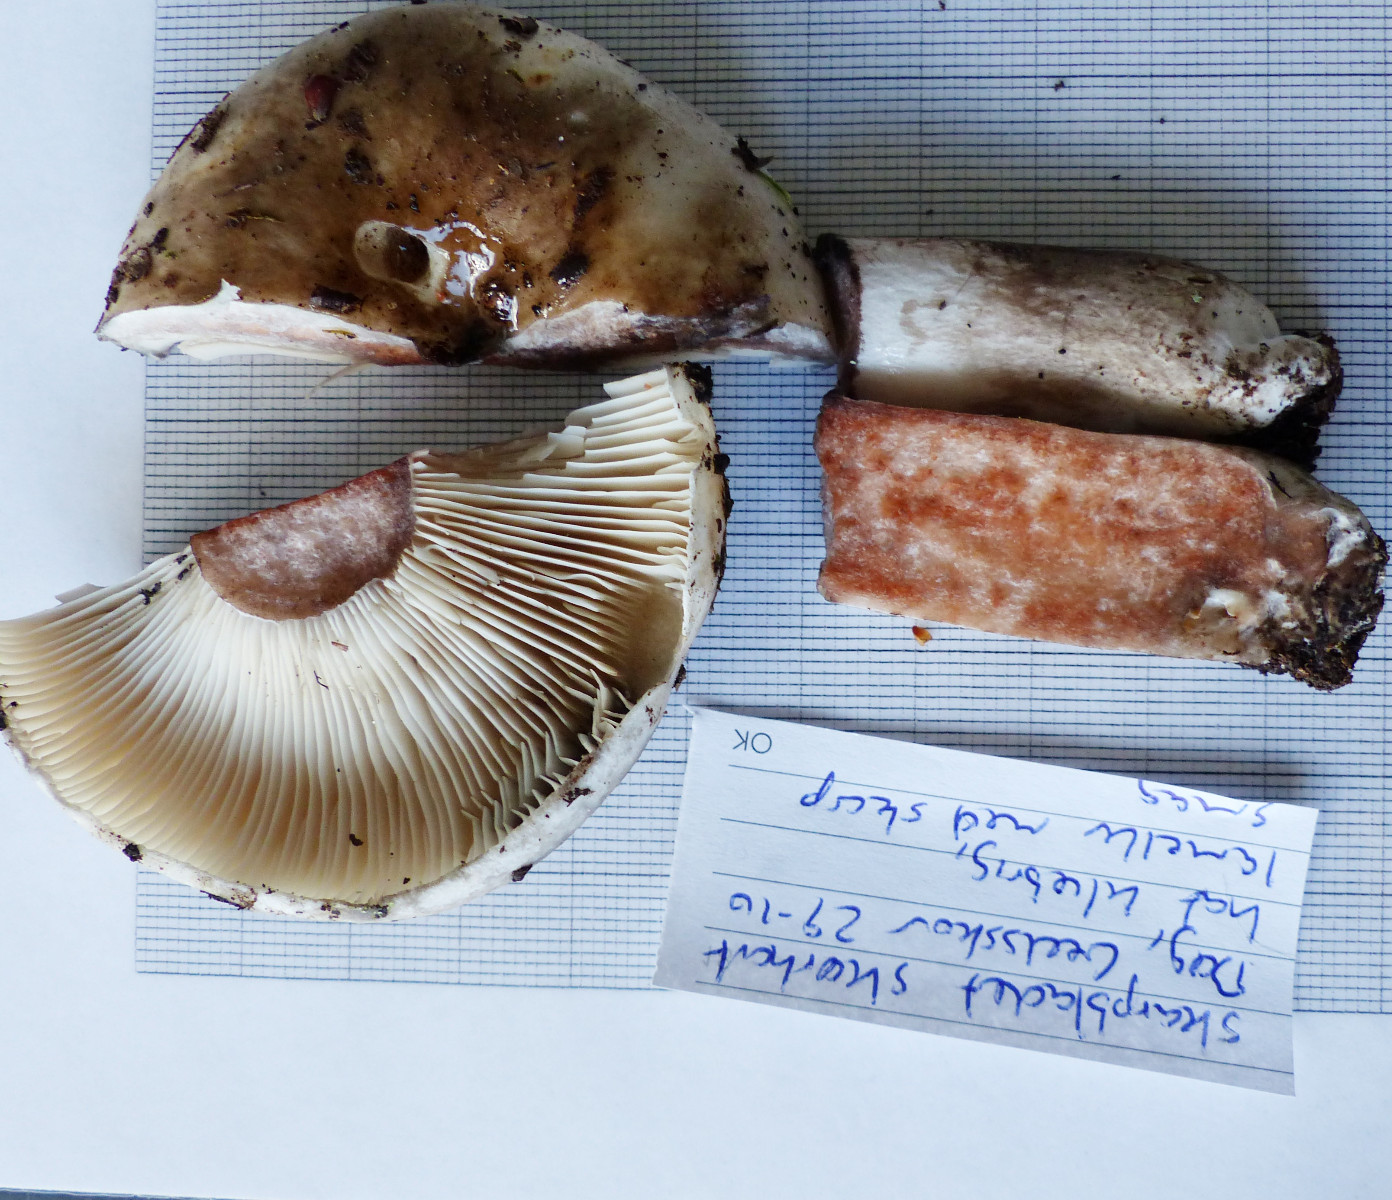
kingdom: Fungi
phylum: Basidiomycota
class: Agaricomycetes
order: Russulales
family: Russulaceae
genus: Russula
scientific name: Russula acrifolia
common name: skarpbladet skørhat
